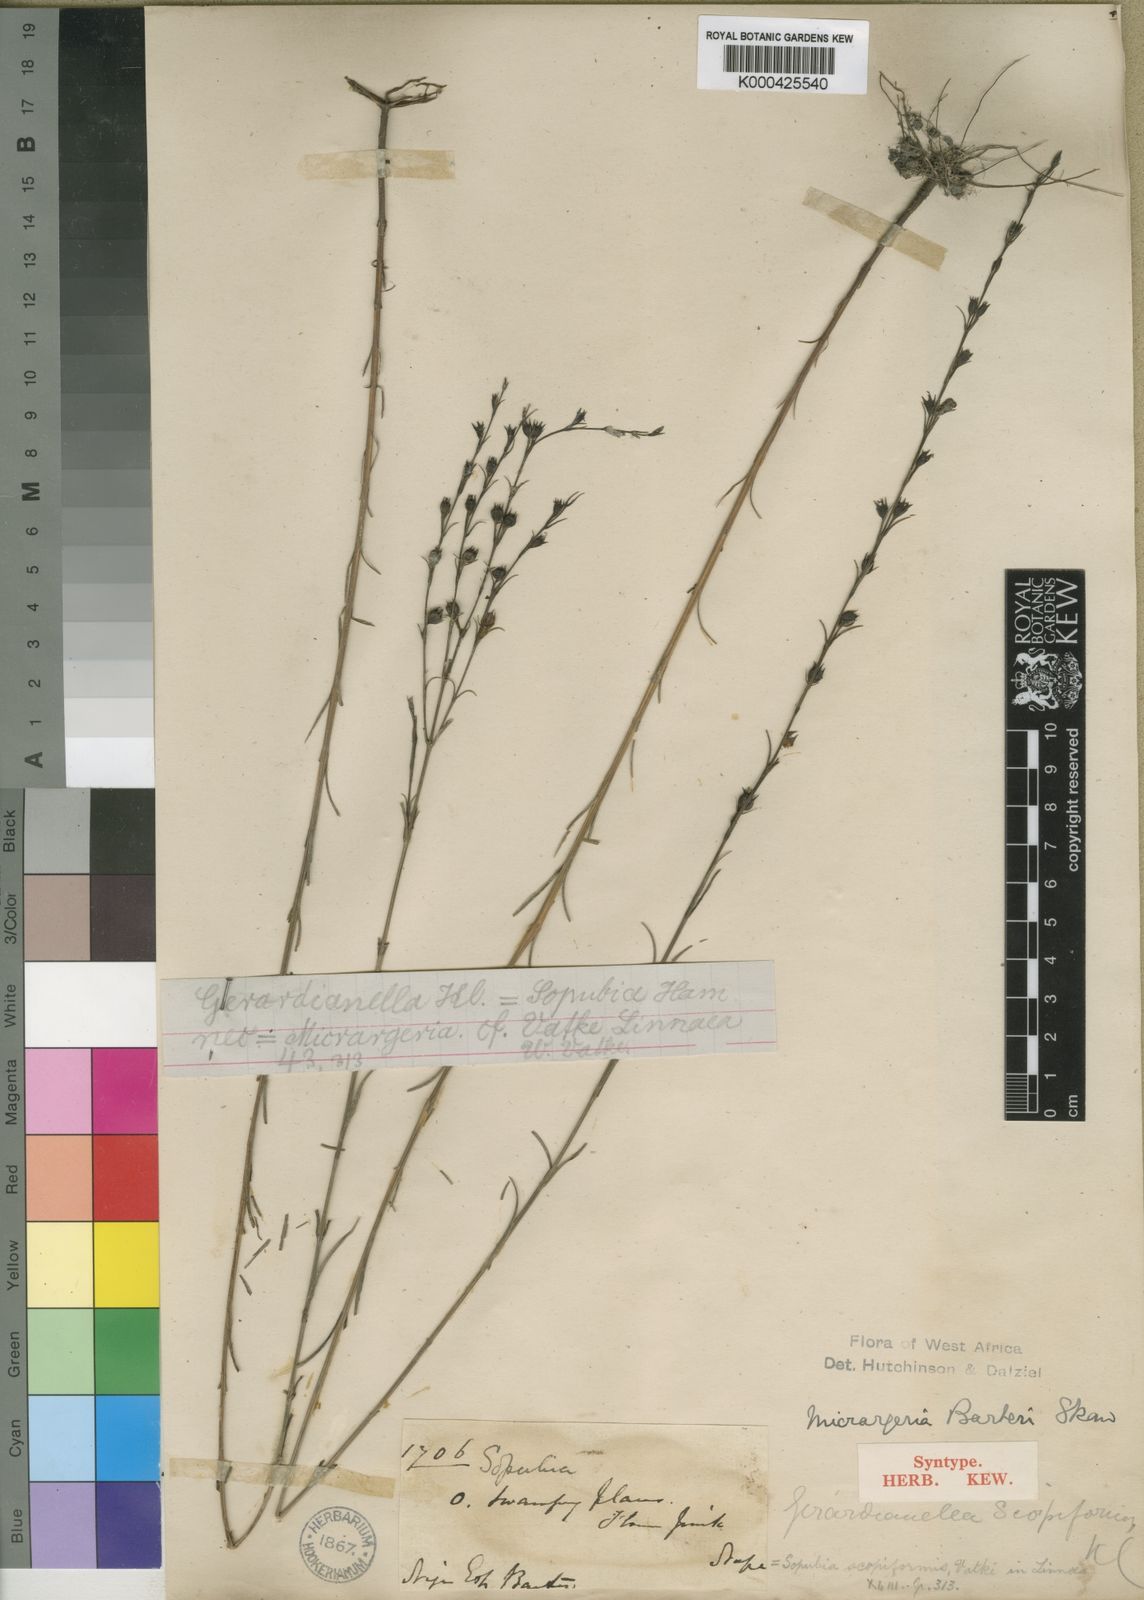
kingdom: Plantae
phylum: Tracheophyta
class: Magnoliopsida
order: Lamiales
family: Orobanchaceae
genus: Micrargeria
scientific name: Micrargeria filiformis
